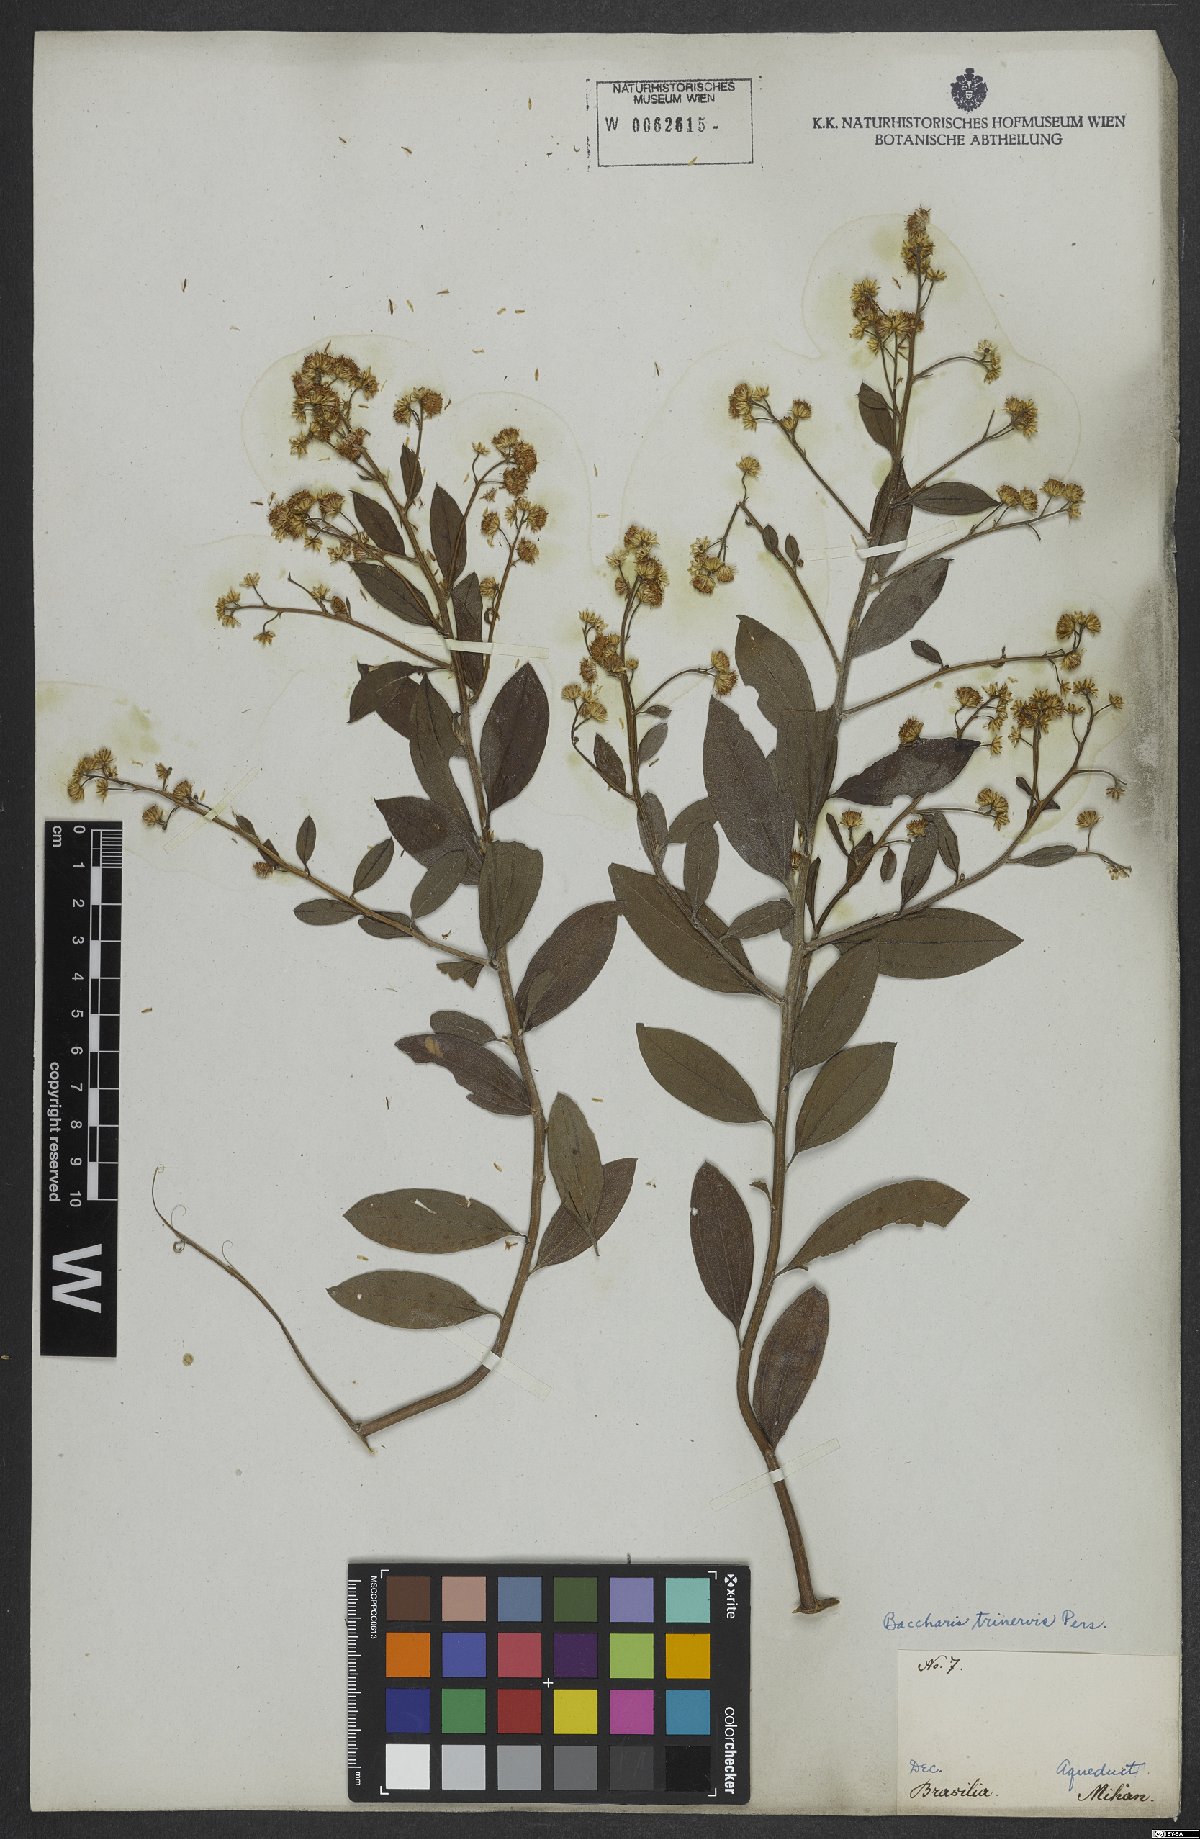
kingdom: Plantae
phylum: Tracheophyta
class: Magnoliopsida
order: Asterales
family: Asteraceae
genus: Baccharis
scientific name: Baccharis trinervis
